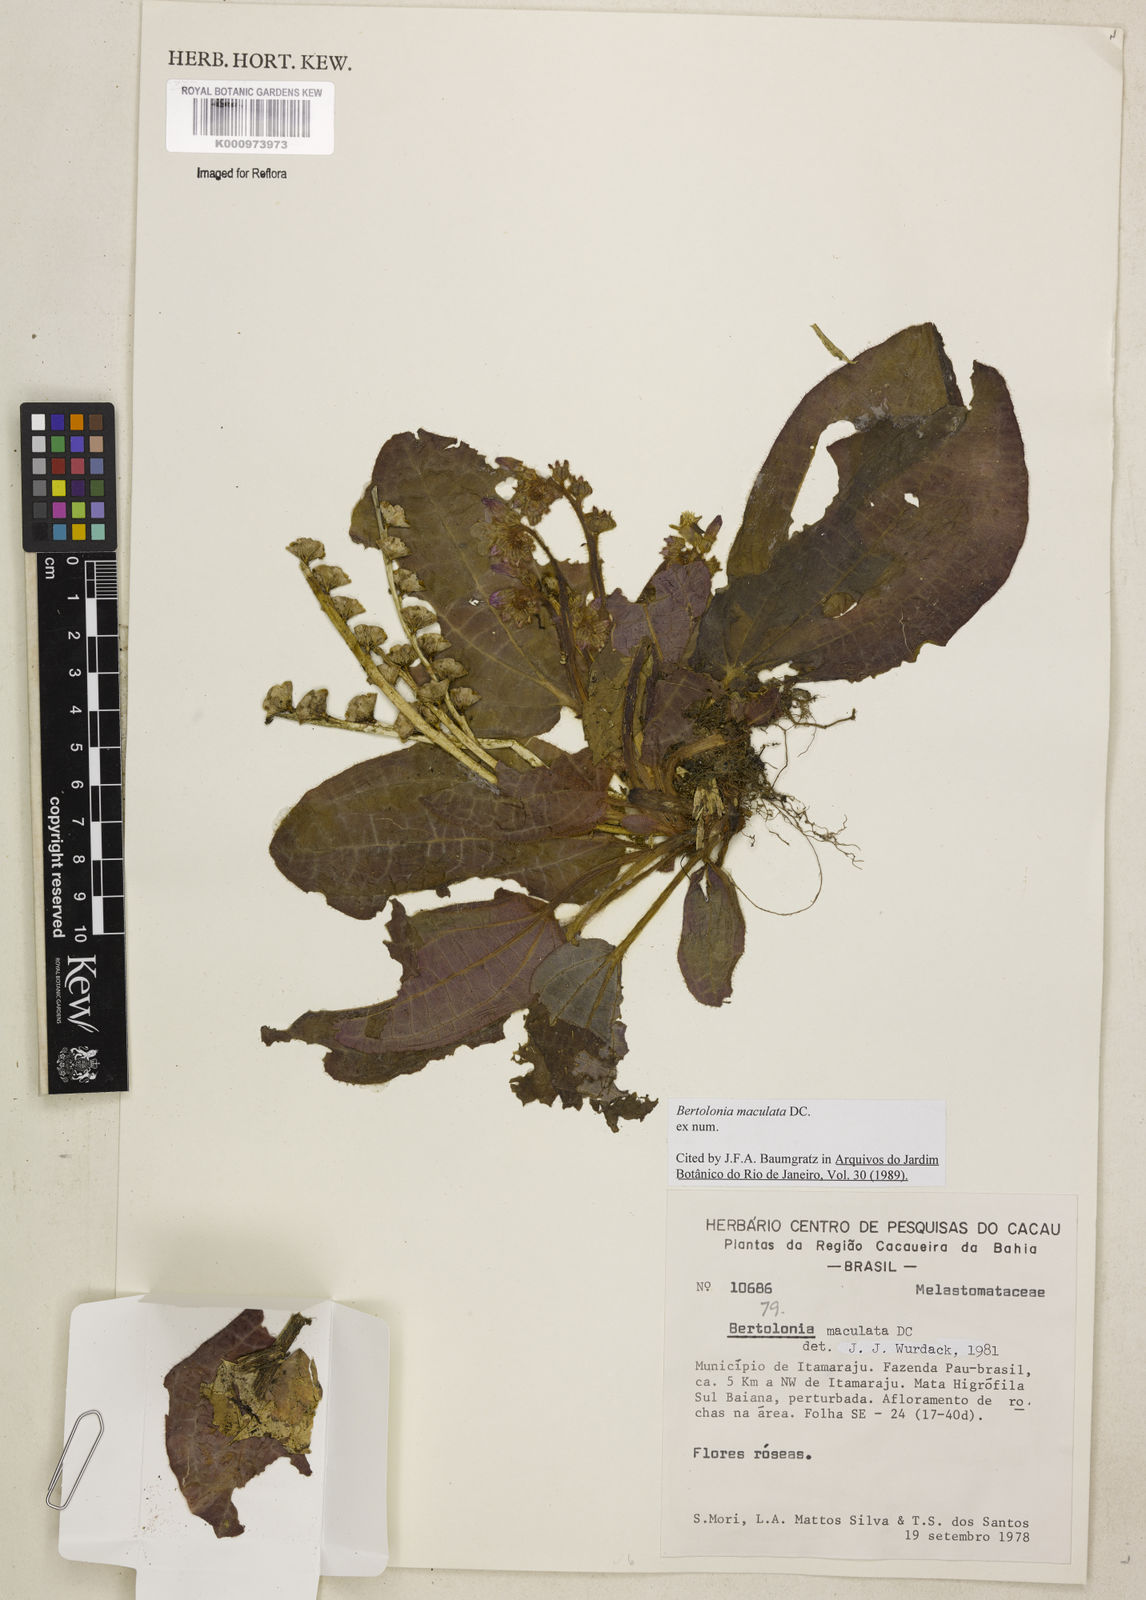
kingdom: Plantae
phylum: Tracheophyta
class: Magnoliopsida
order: Myrtales
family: Melastomataceae
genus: Bertolonia
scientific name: Bertolonia maculata
